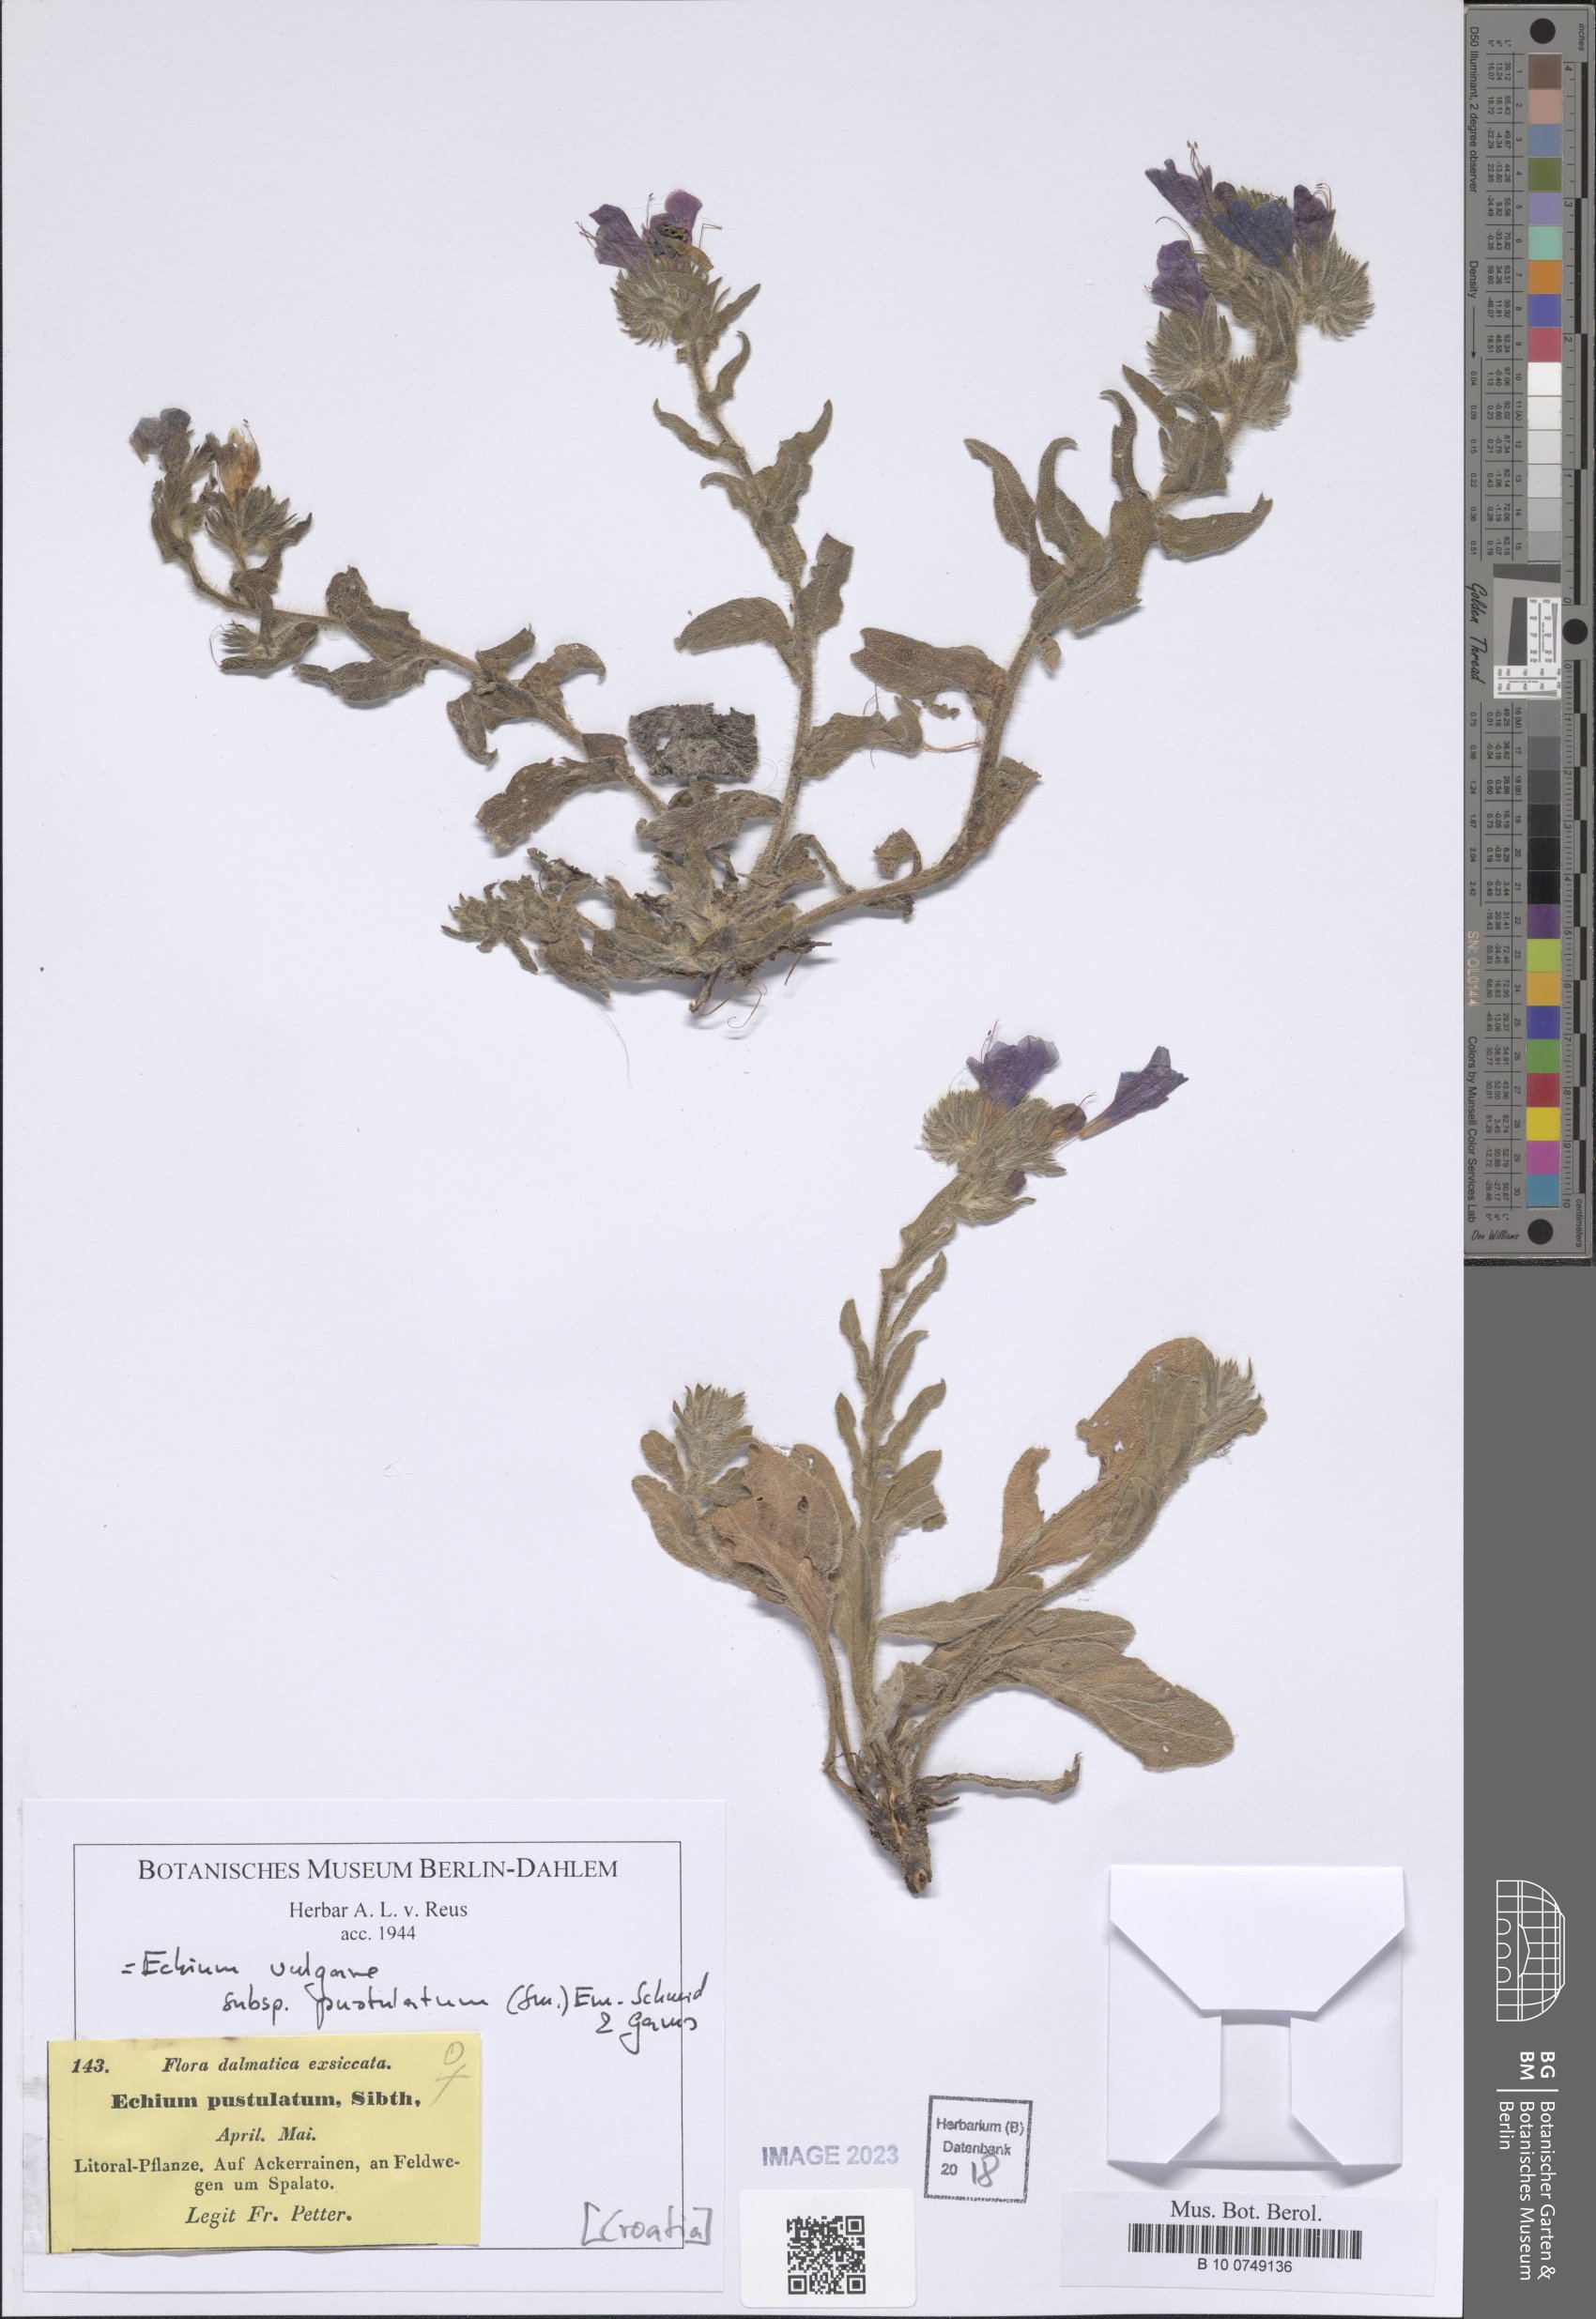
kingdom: Plantae
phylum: Tracheophyta
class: Magnoliopsida
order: Boraginales
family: Boraginaceae
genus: Echium
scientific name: Echium vulgare
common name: Common viper's bugloss
